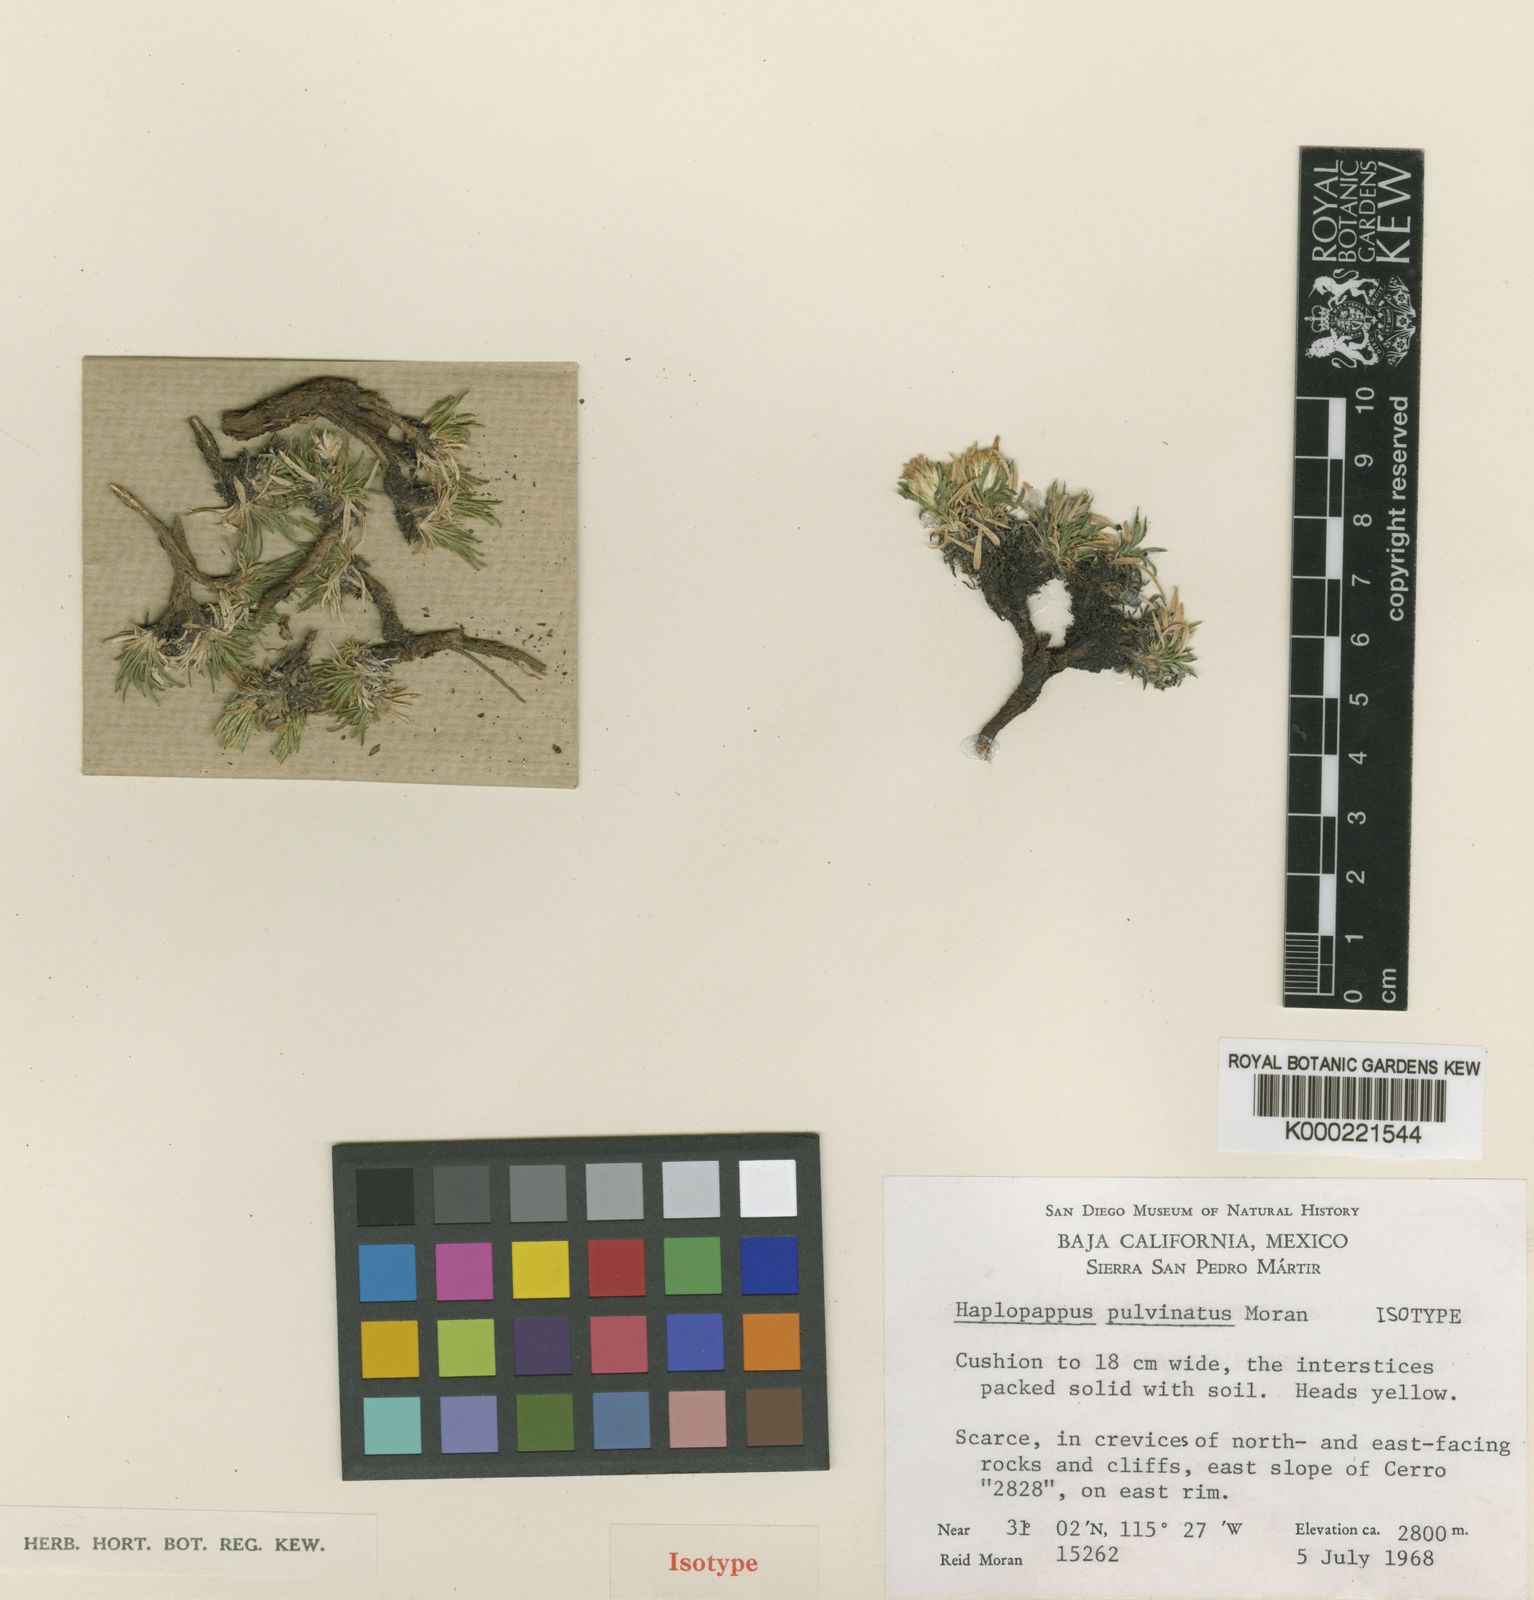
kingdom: Plantae
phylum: Tracheophyta
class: Magnoliopsida
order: Asterales
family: Asteraceae
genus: Stenotus
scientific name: Stenotus pulvinatus
